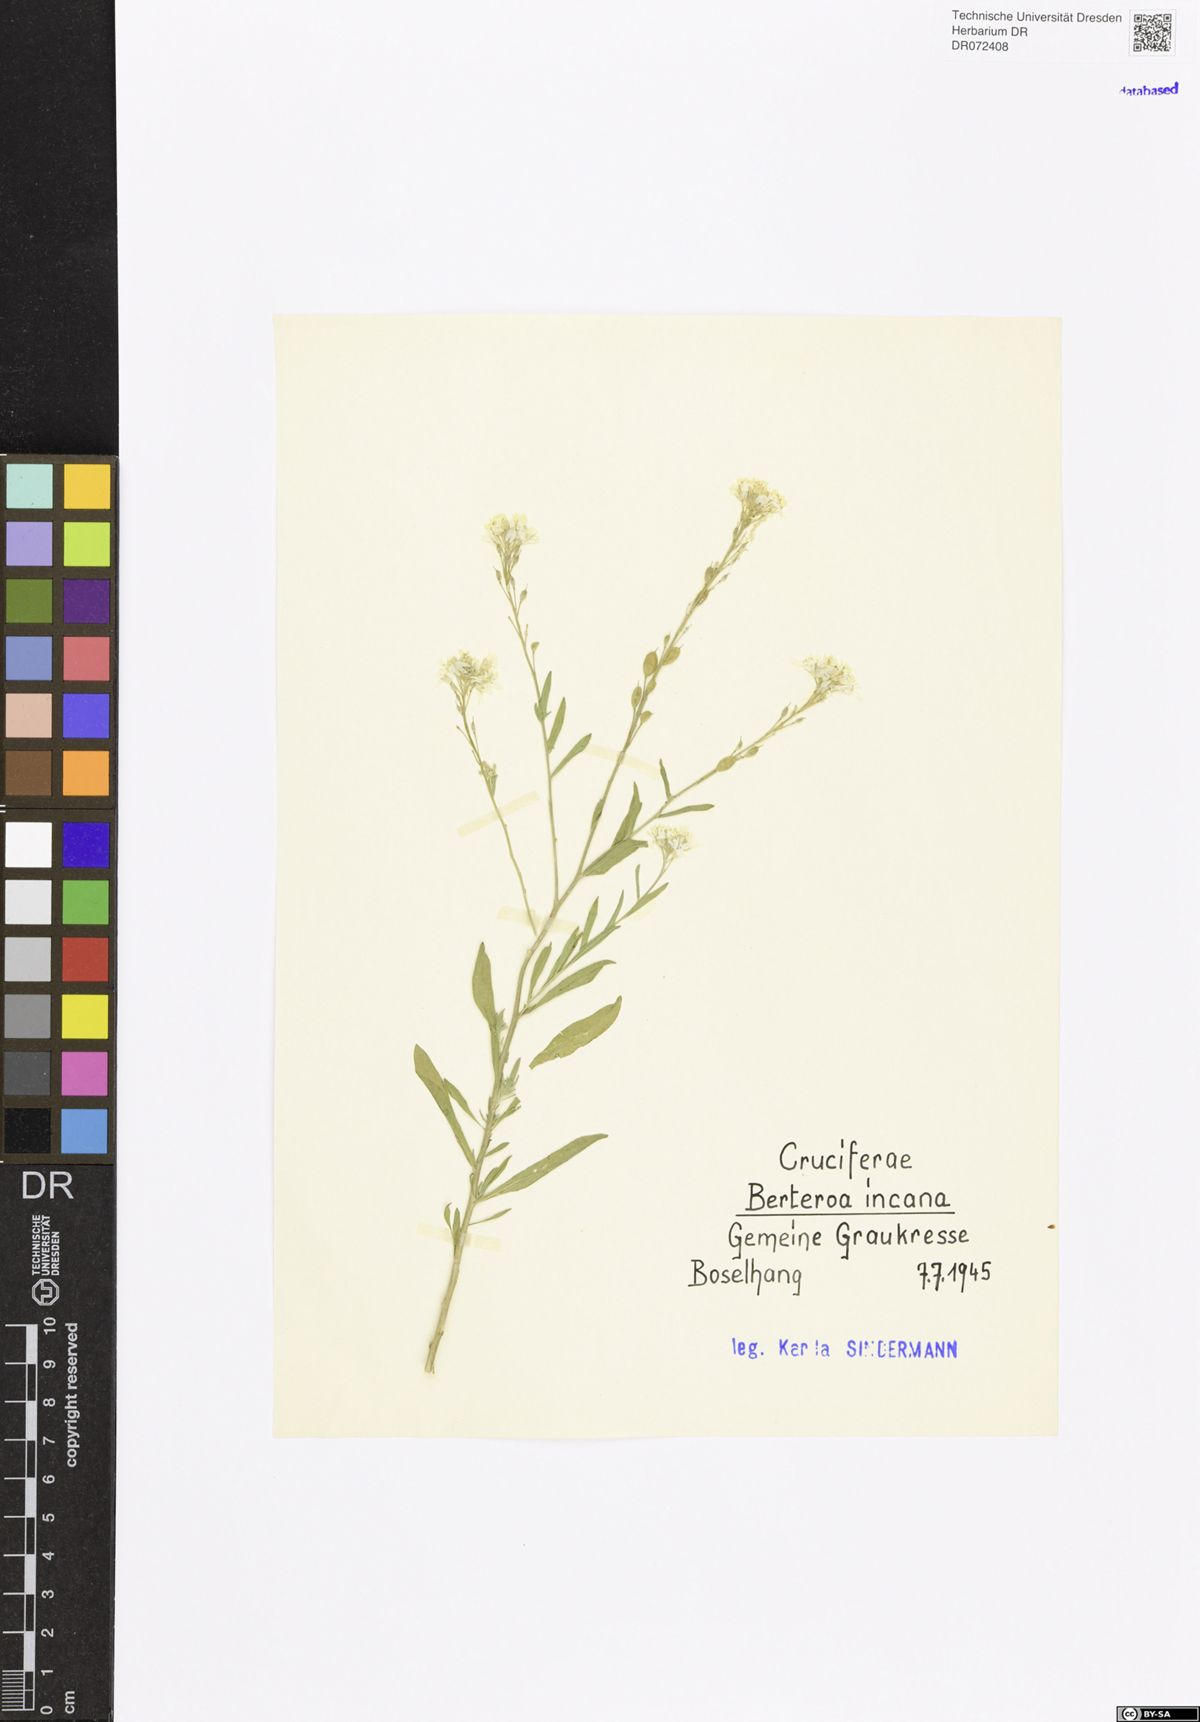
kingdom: Plantae
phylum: Tracheophyta
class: Magnoliopsida
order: Brassicales
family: Brassicaceae
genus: Berteroa
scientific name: Berteroa incana
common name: Hoary alison
